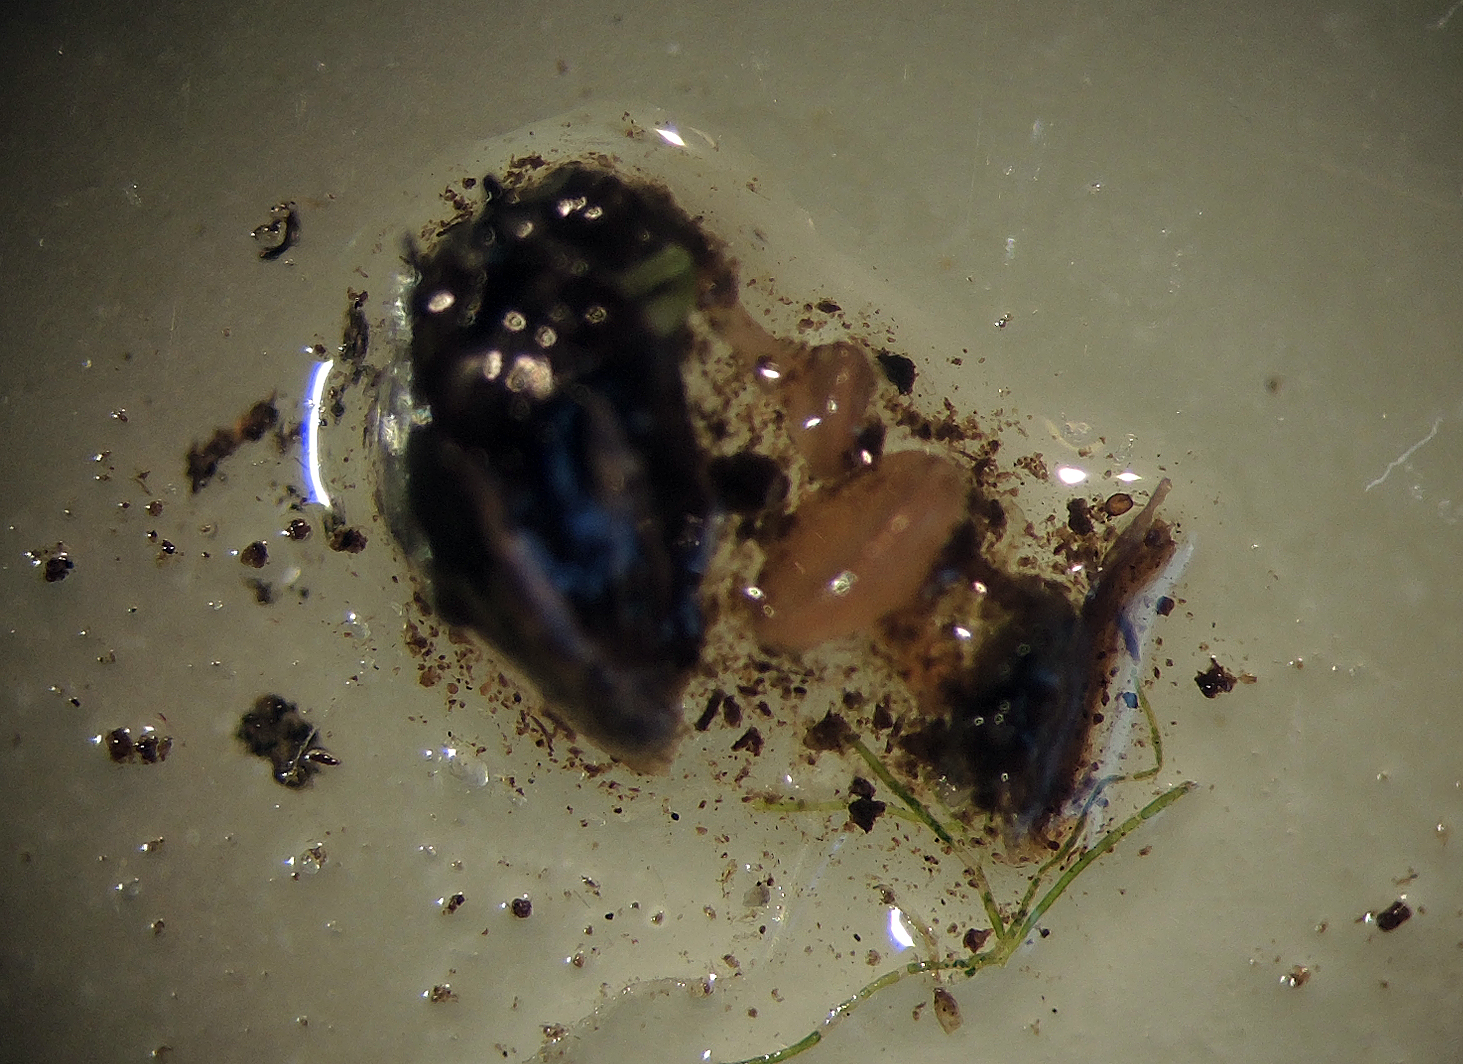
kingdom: Fungi
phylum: Ascomycota
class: Leotiomycetes
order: Helotiales
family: Sclerotiniaceae
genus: Ciboria
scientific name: Ciboria juncorum
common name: siv-frugtskive
